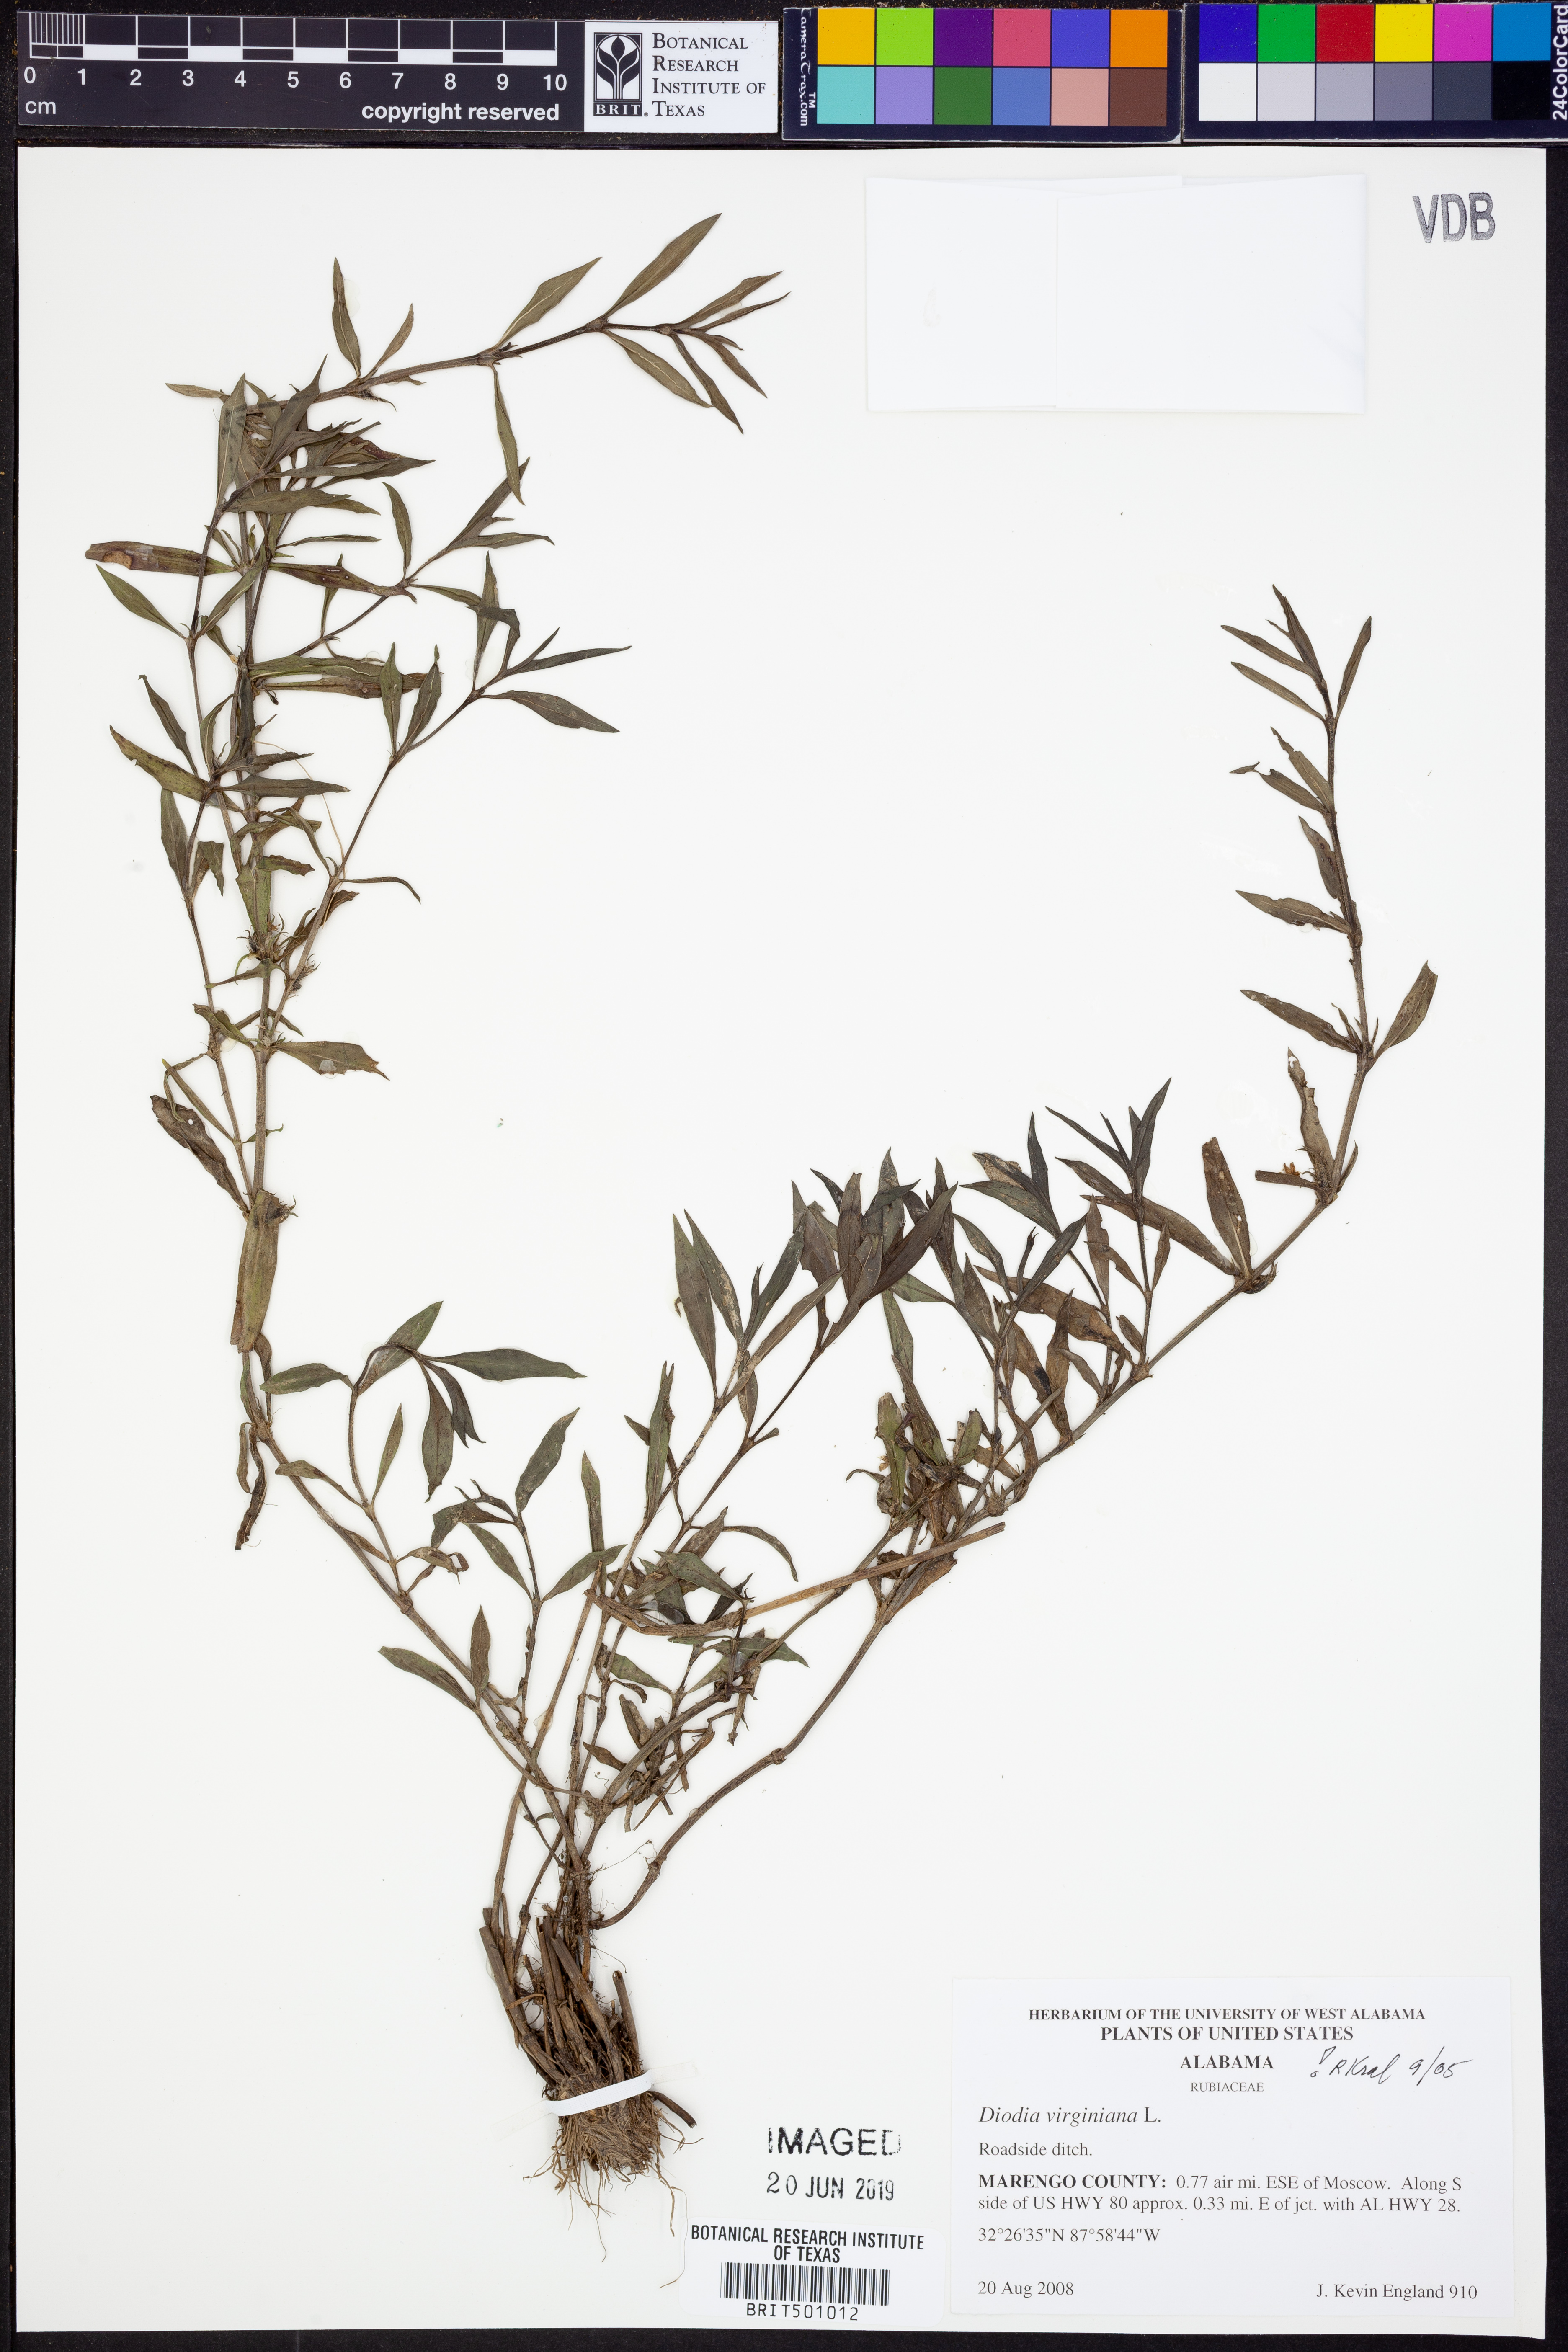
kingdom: Plantae
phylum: Tracheophyta
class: Magnoliopsida
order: Gentianales
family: Rubiaceae
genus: Diodia
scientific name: Diodia virginiana
